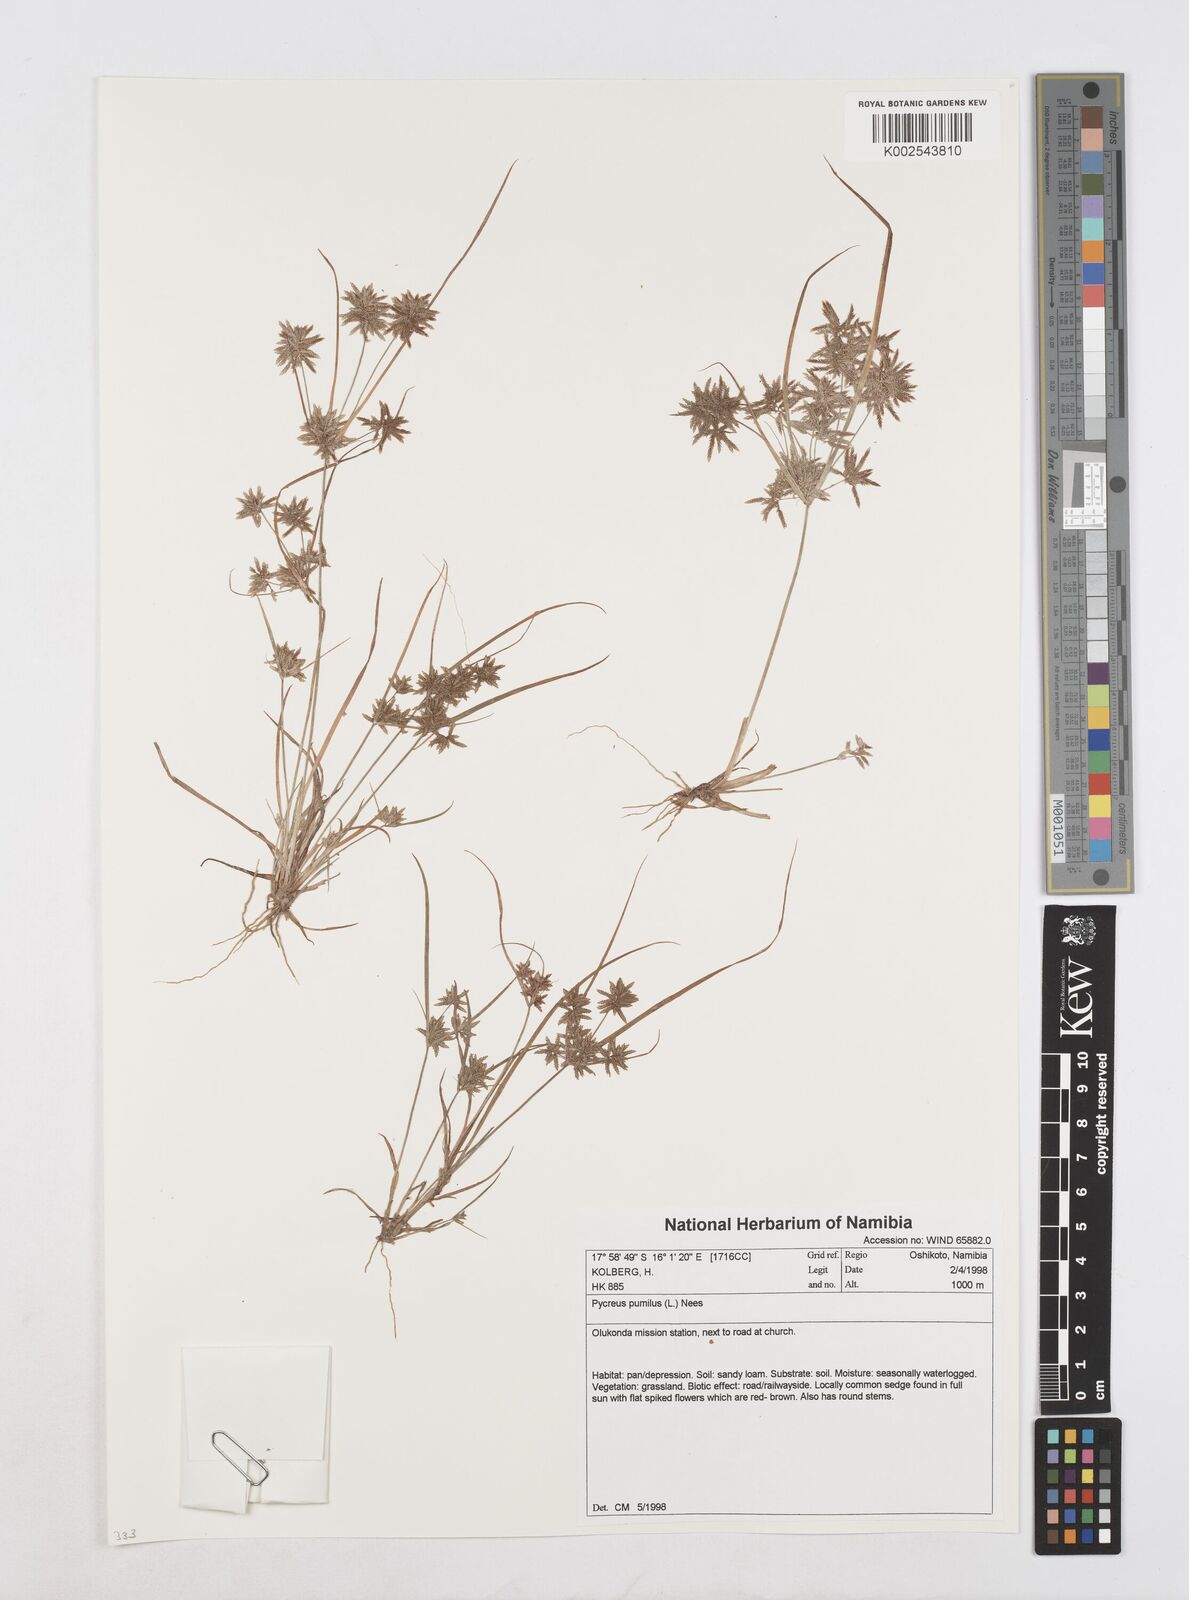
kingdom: Plantae
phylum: Tracheophyta
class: Liliopsida
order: Poales
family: Cyperaceae
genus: Cyperus
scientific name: Cyperus pumilus
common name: Low flatsedge
